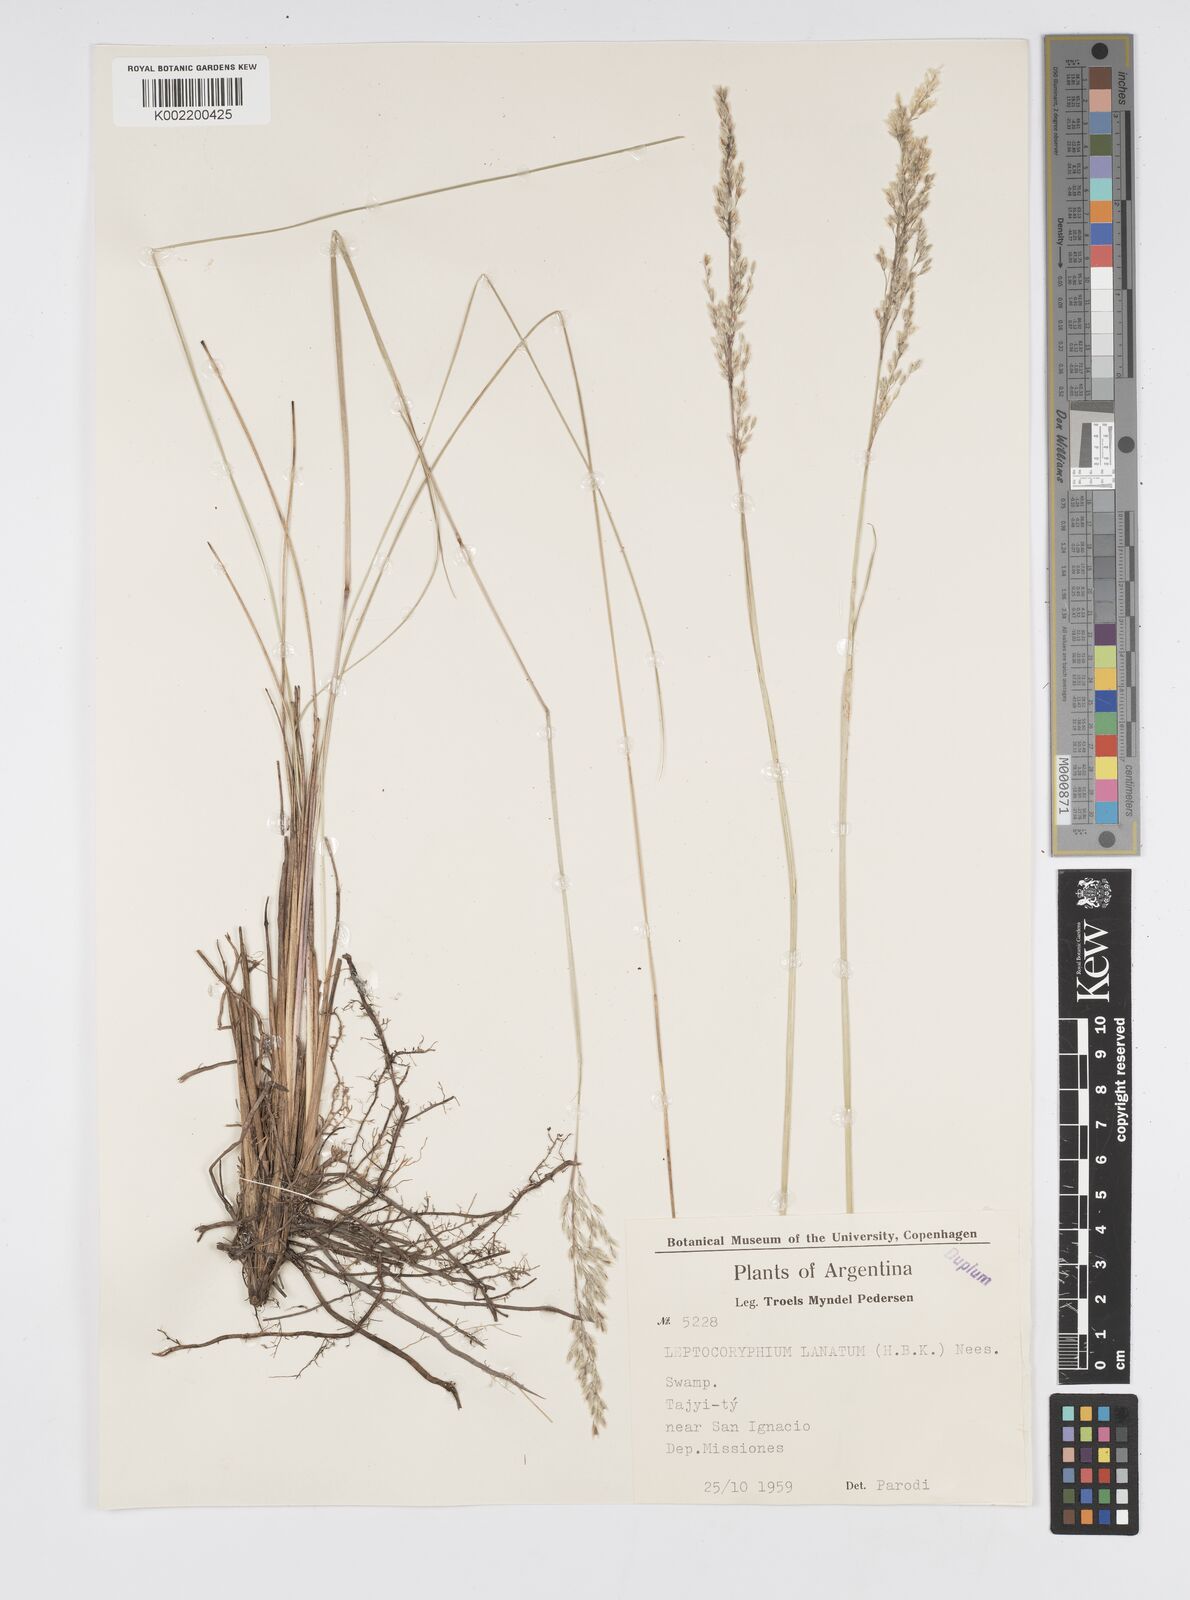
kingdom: Plantae
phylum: Tracheophyta
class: Liliopsida
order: Poales
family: Poaceae
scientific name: Poaceae
